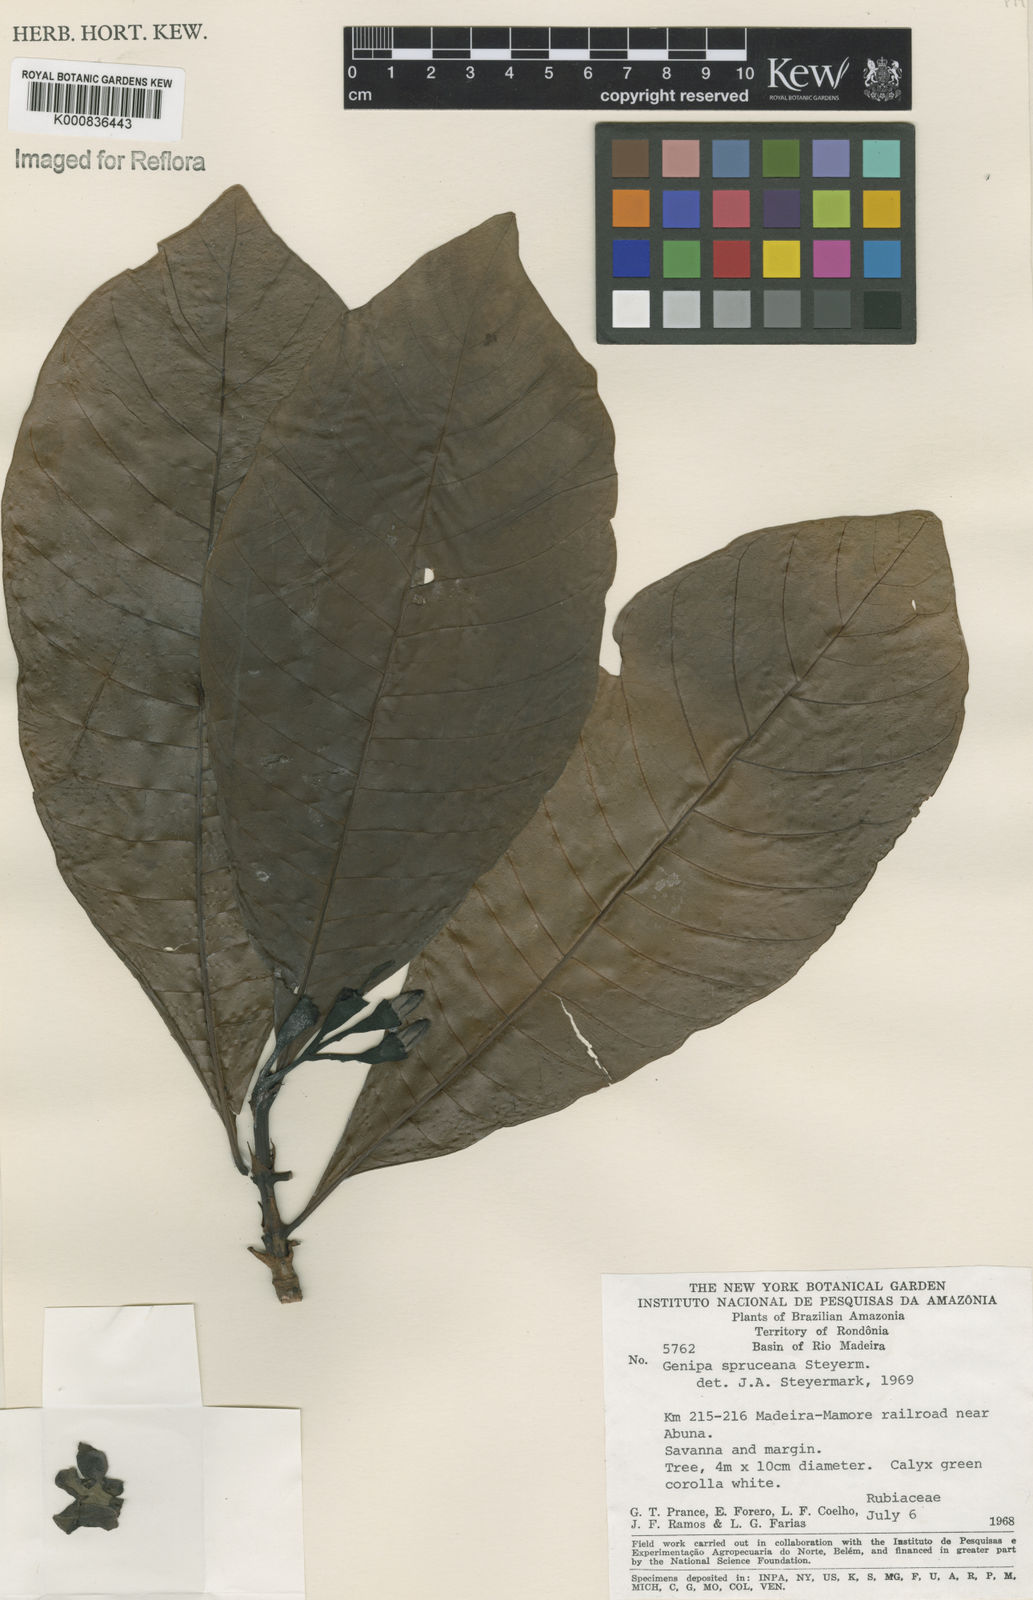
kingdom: Plantae
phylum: Tracheophyta
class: Magnoliopsida
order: Gentianales
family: Rubiaceae
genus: Genipa
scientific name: Genipa americana
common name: Genipap
